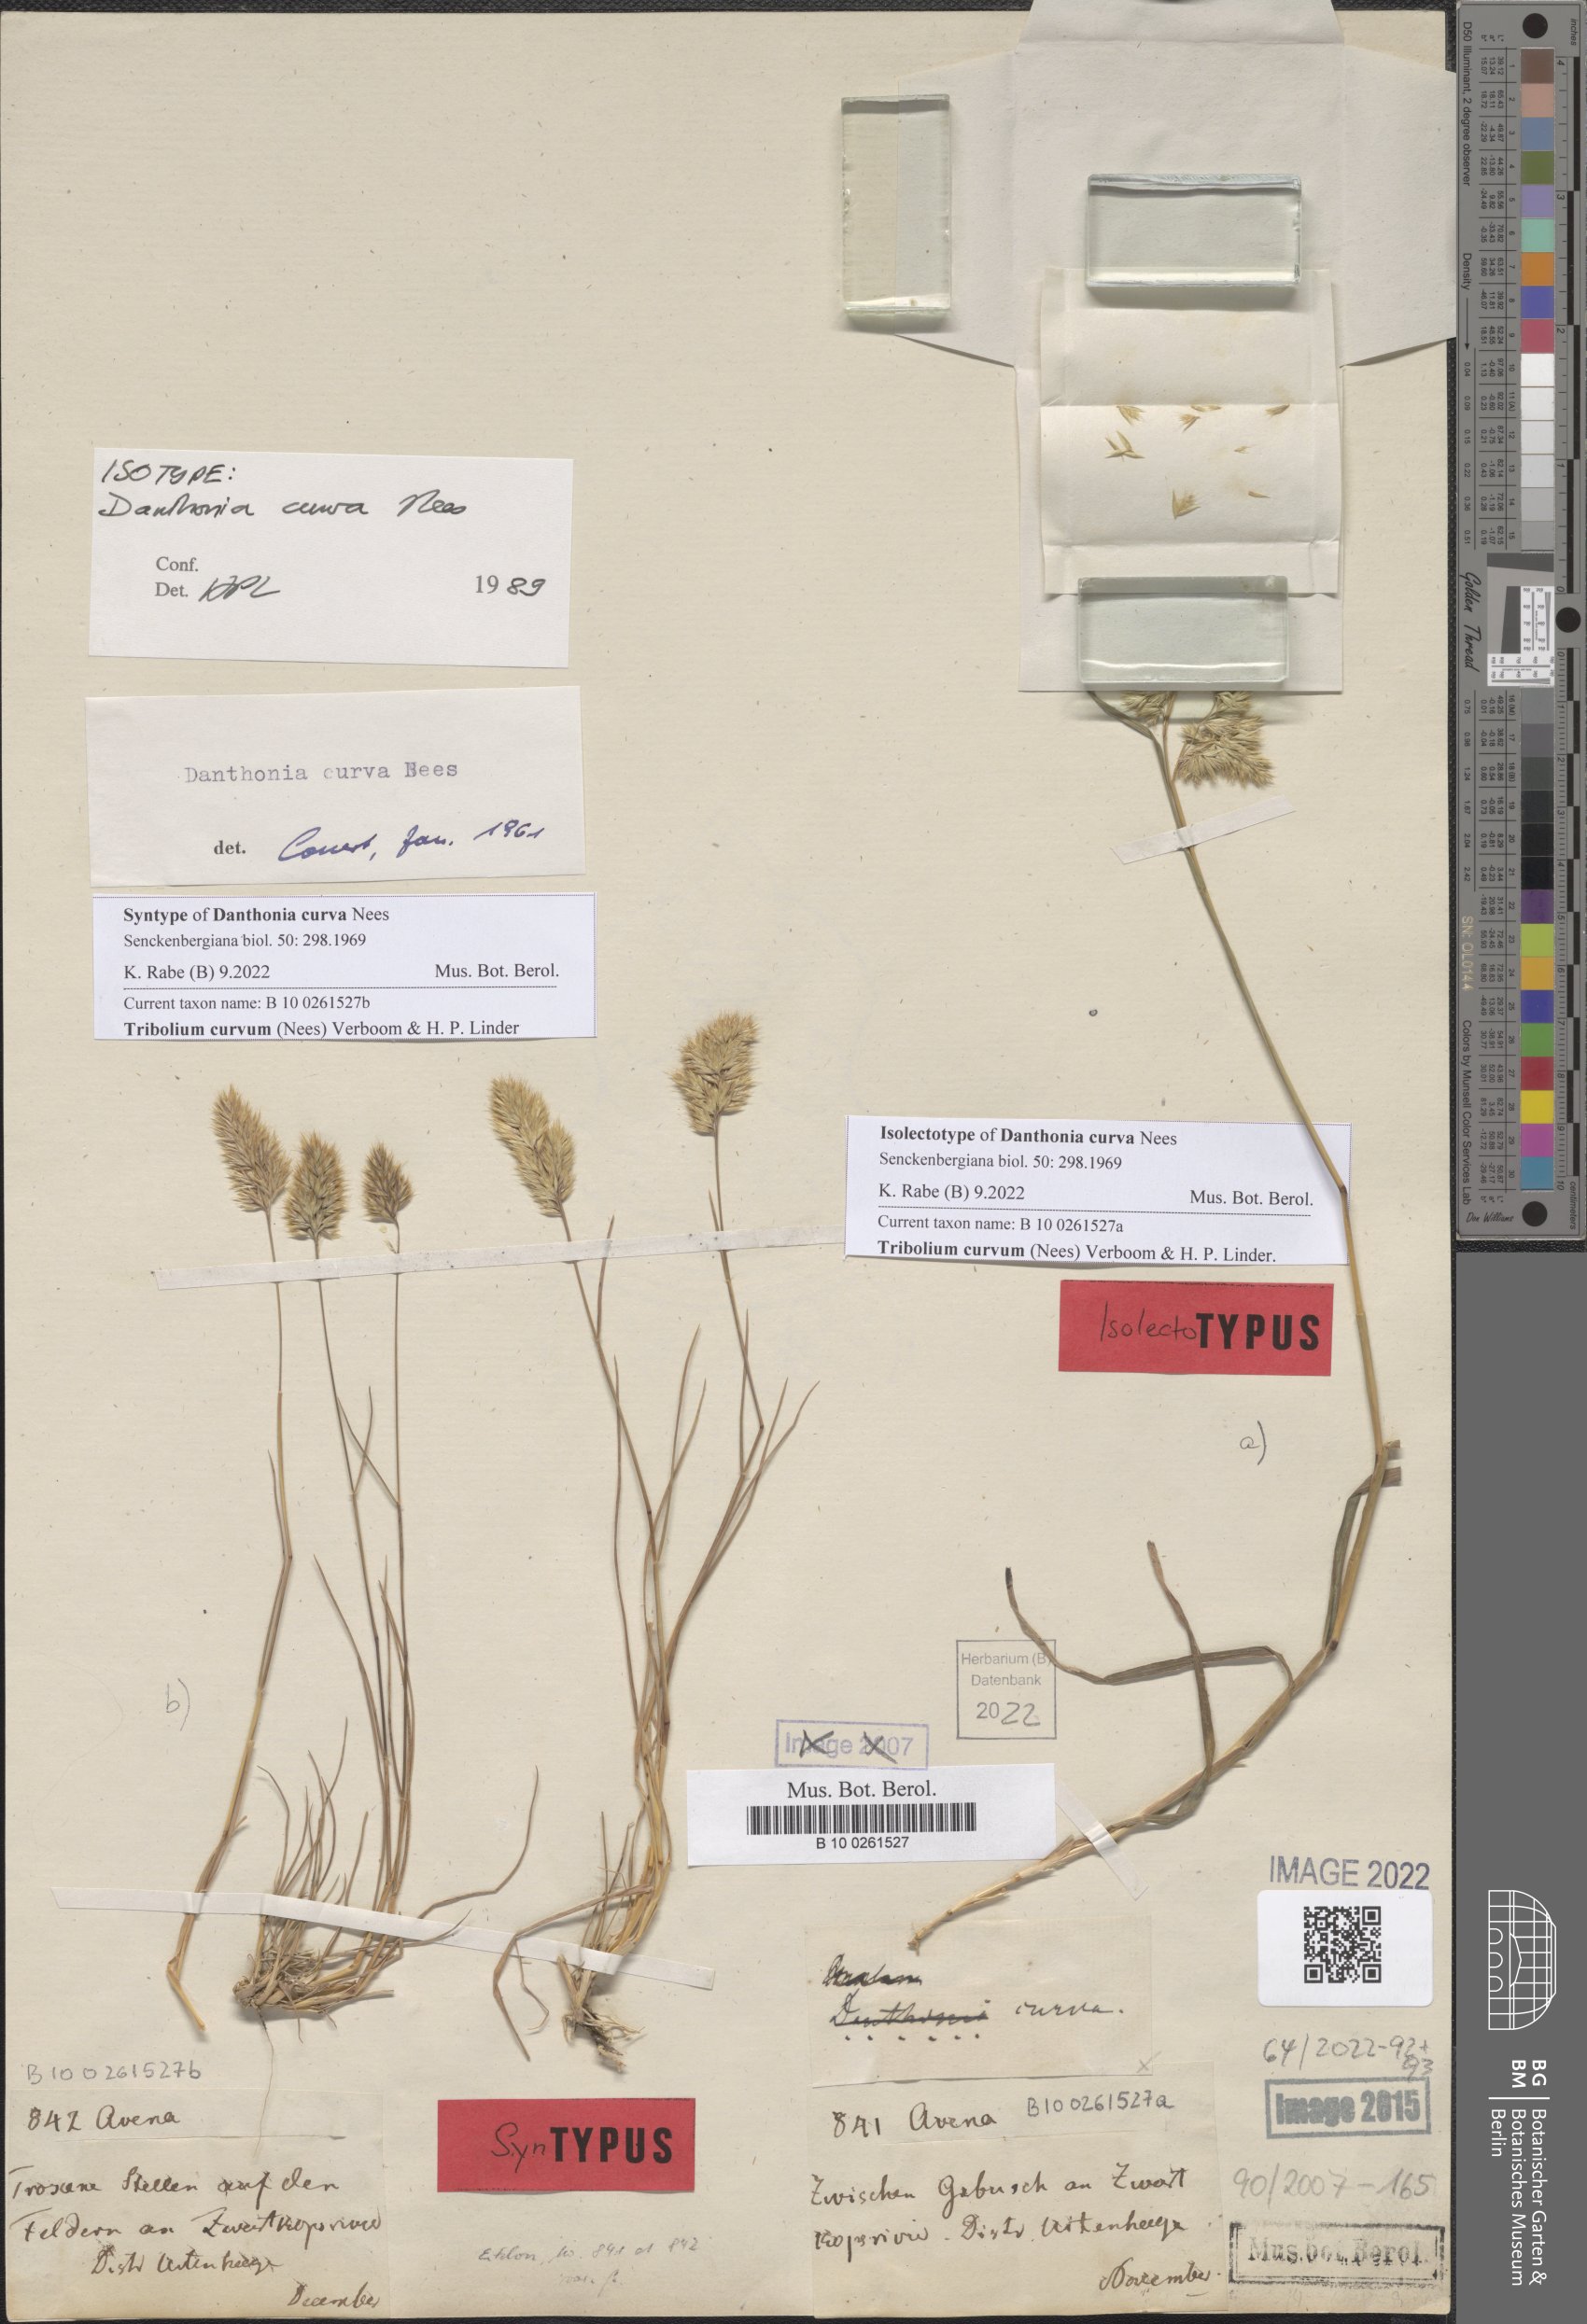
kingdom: Plantae
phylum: Tracheophyta
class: Liliopsida
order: Poales
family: Poaceae
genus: Tribolium
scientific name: Tribolium curvum
